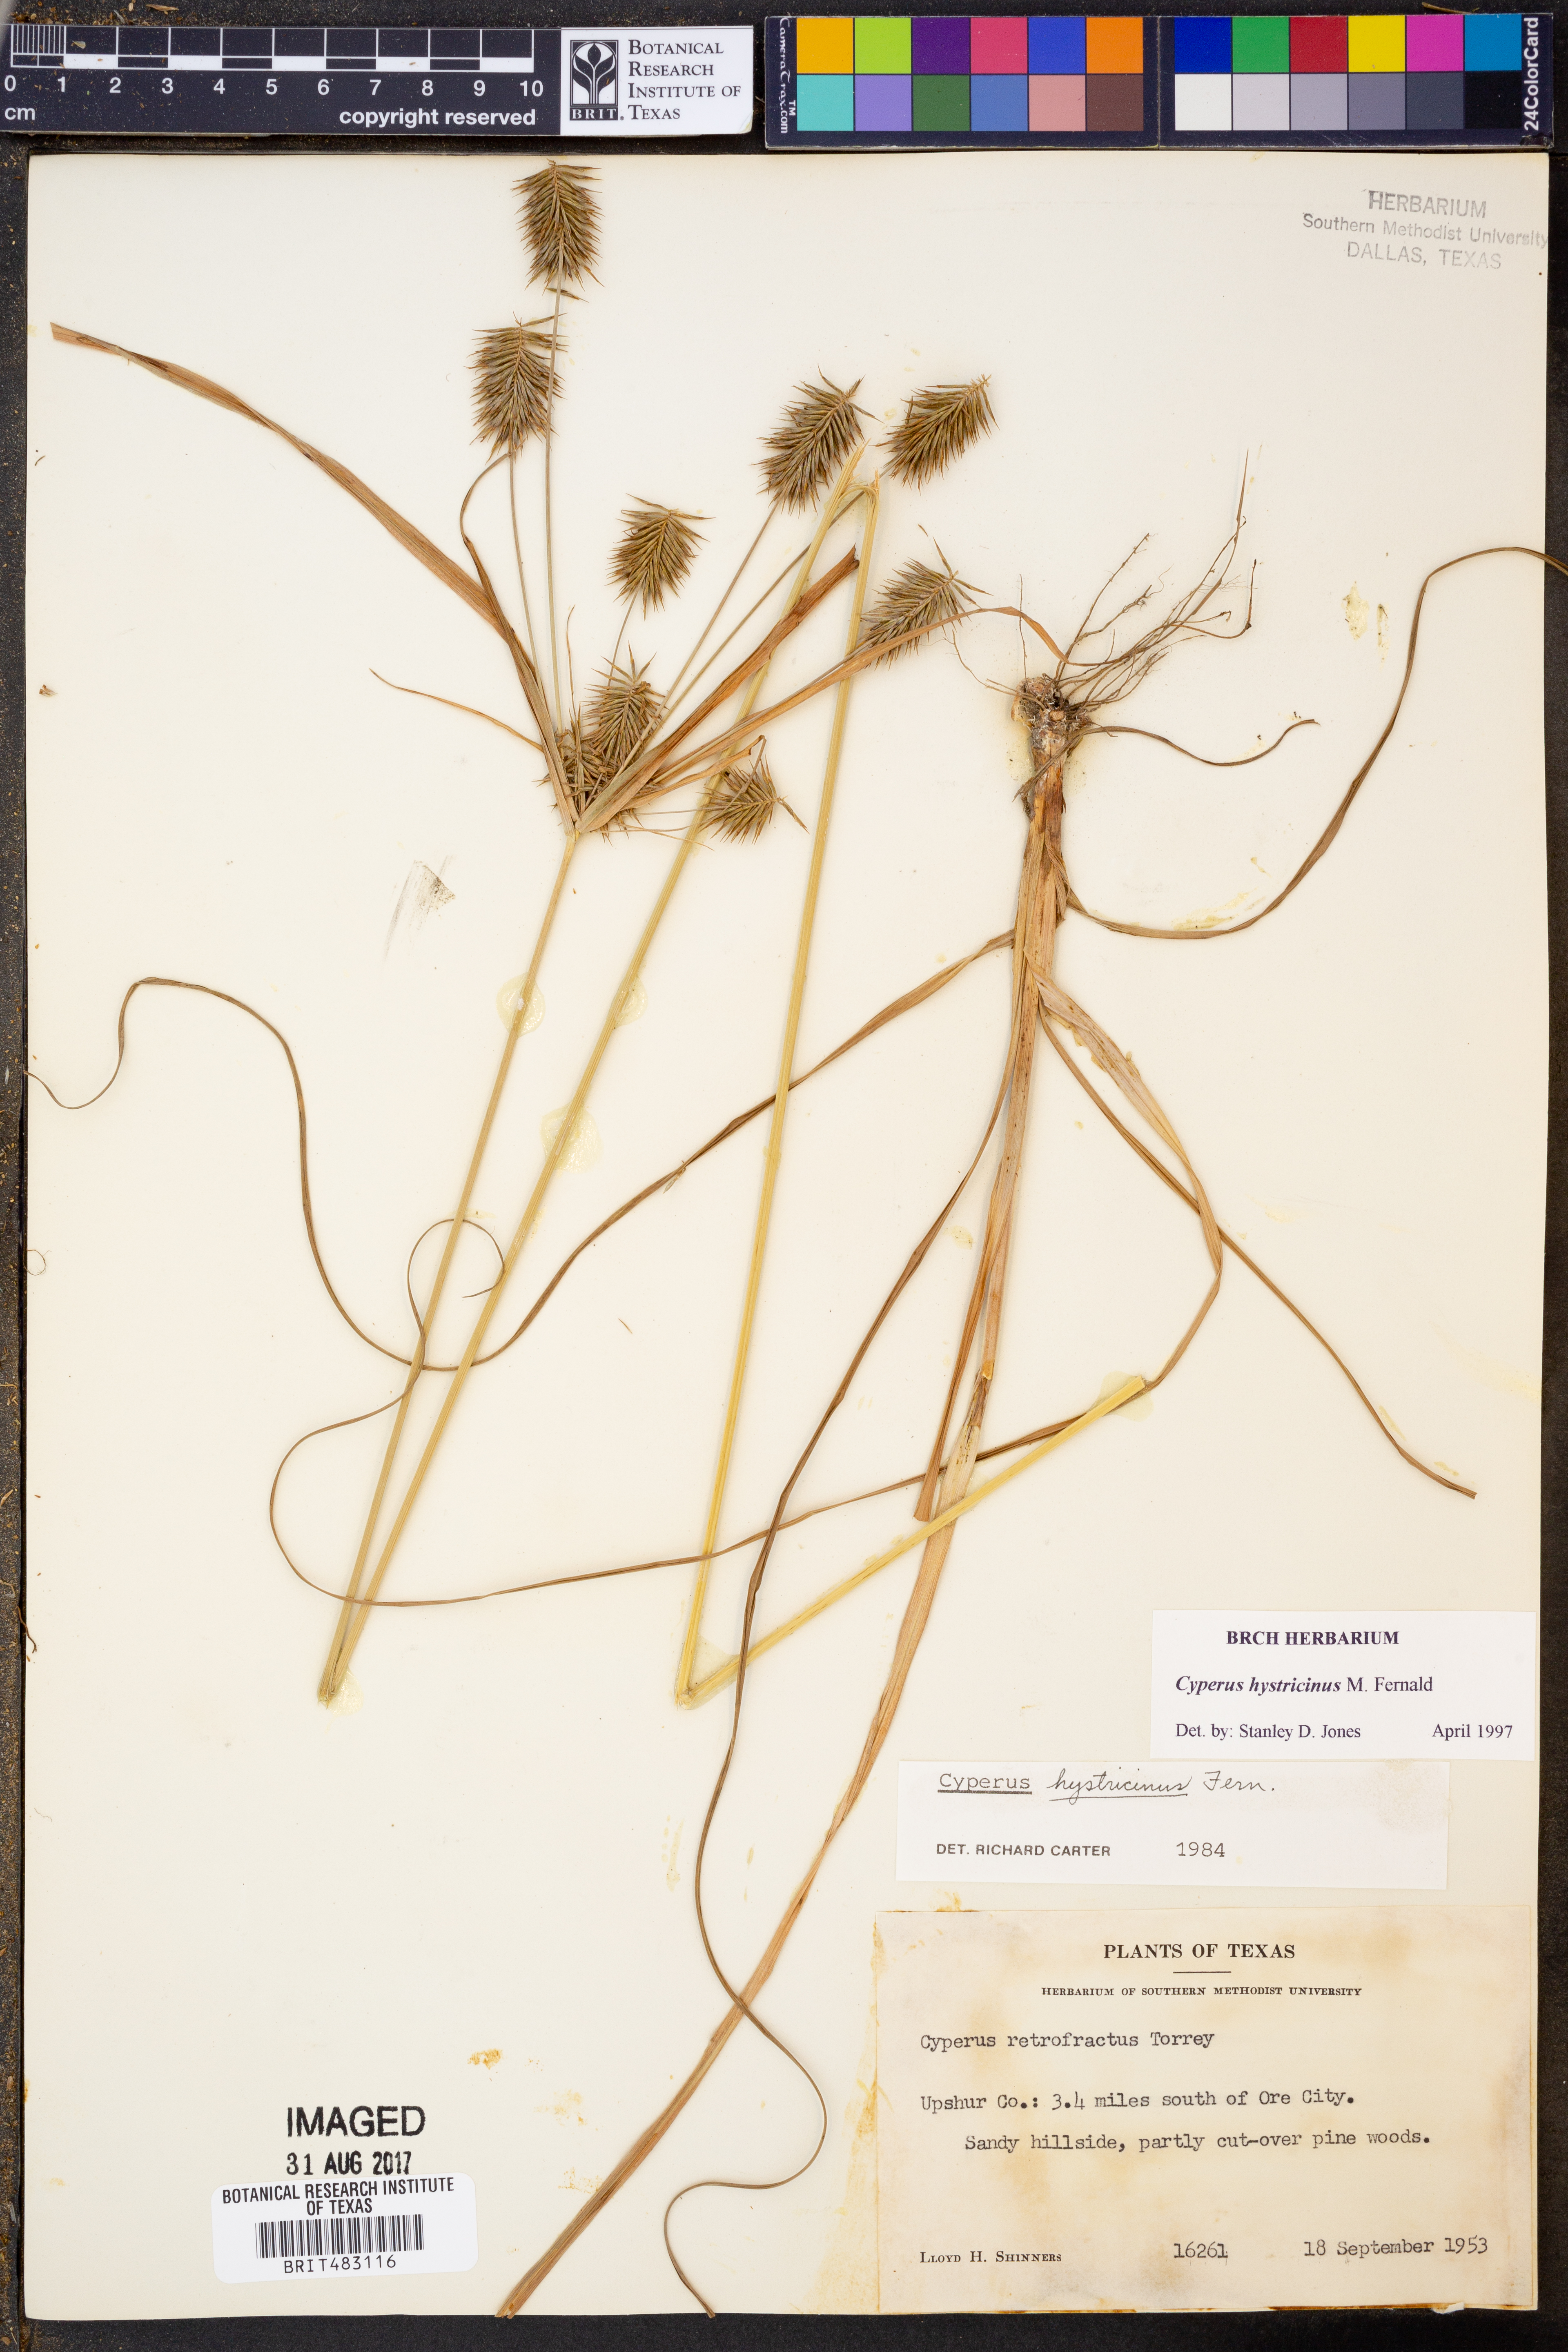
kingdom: Plantae
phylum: Tracheophyta
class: Liliopsida
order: Poales
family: Cyperaceae
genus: Cyperus
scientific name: Cyperus hystricinus
